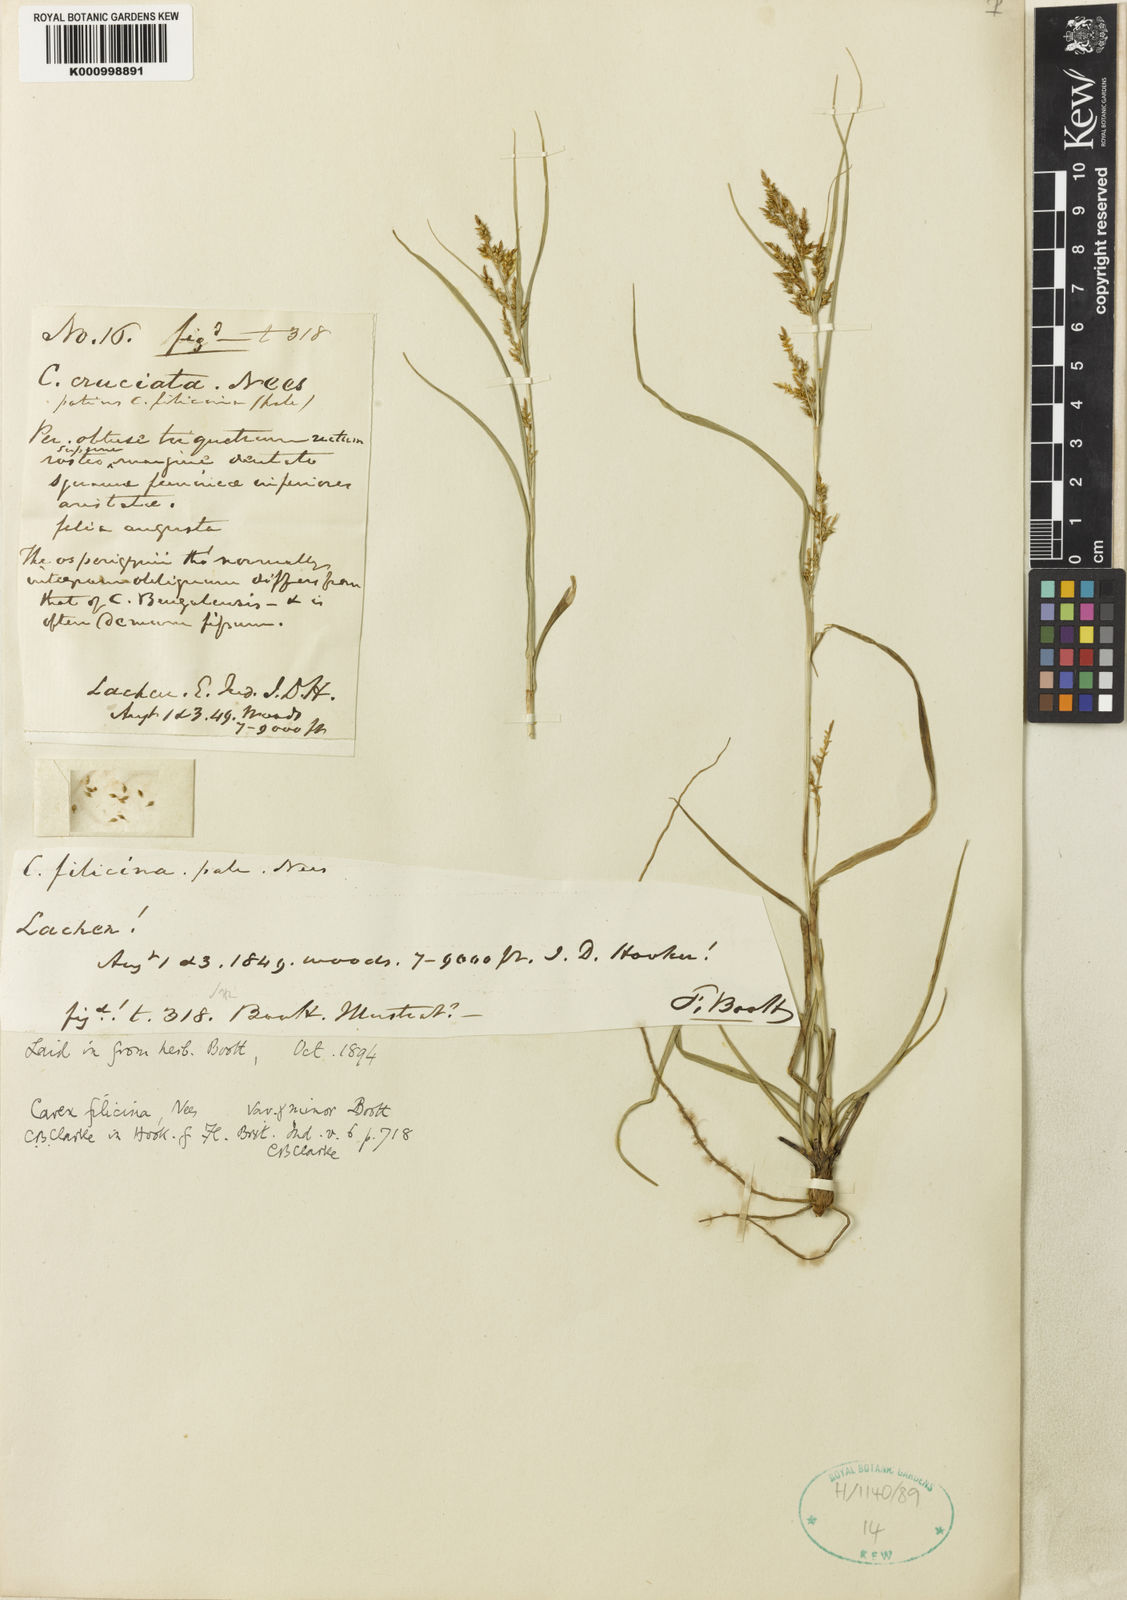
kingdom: Plantae
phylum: Tracheophyta
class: Liliopsida
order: Poales
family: Cyperaceae
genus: Carex
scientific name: Carex filicina
